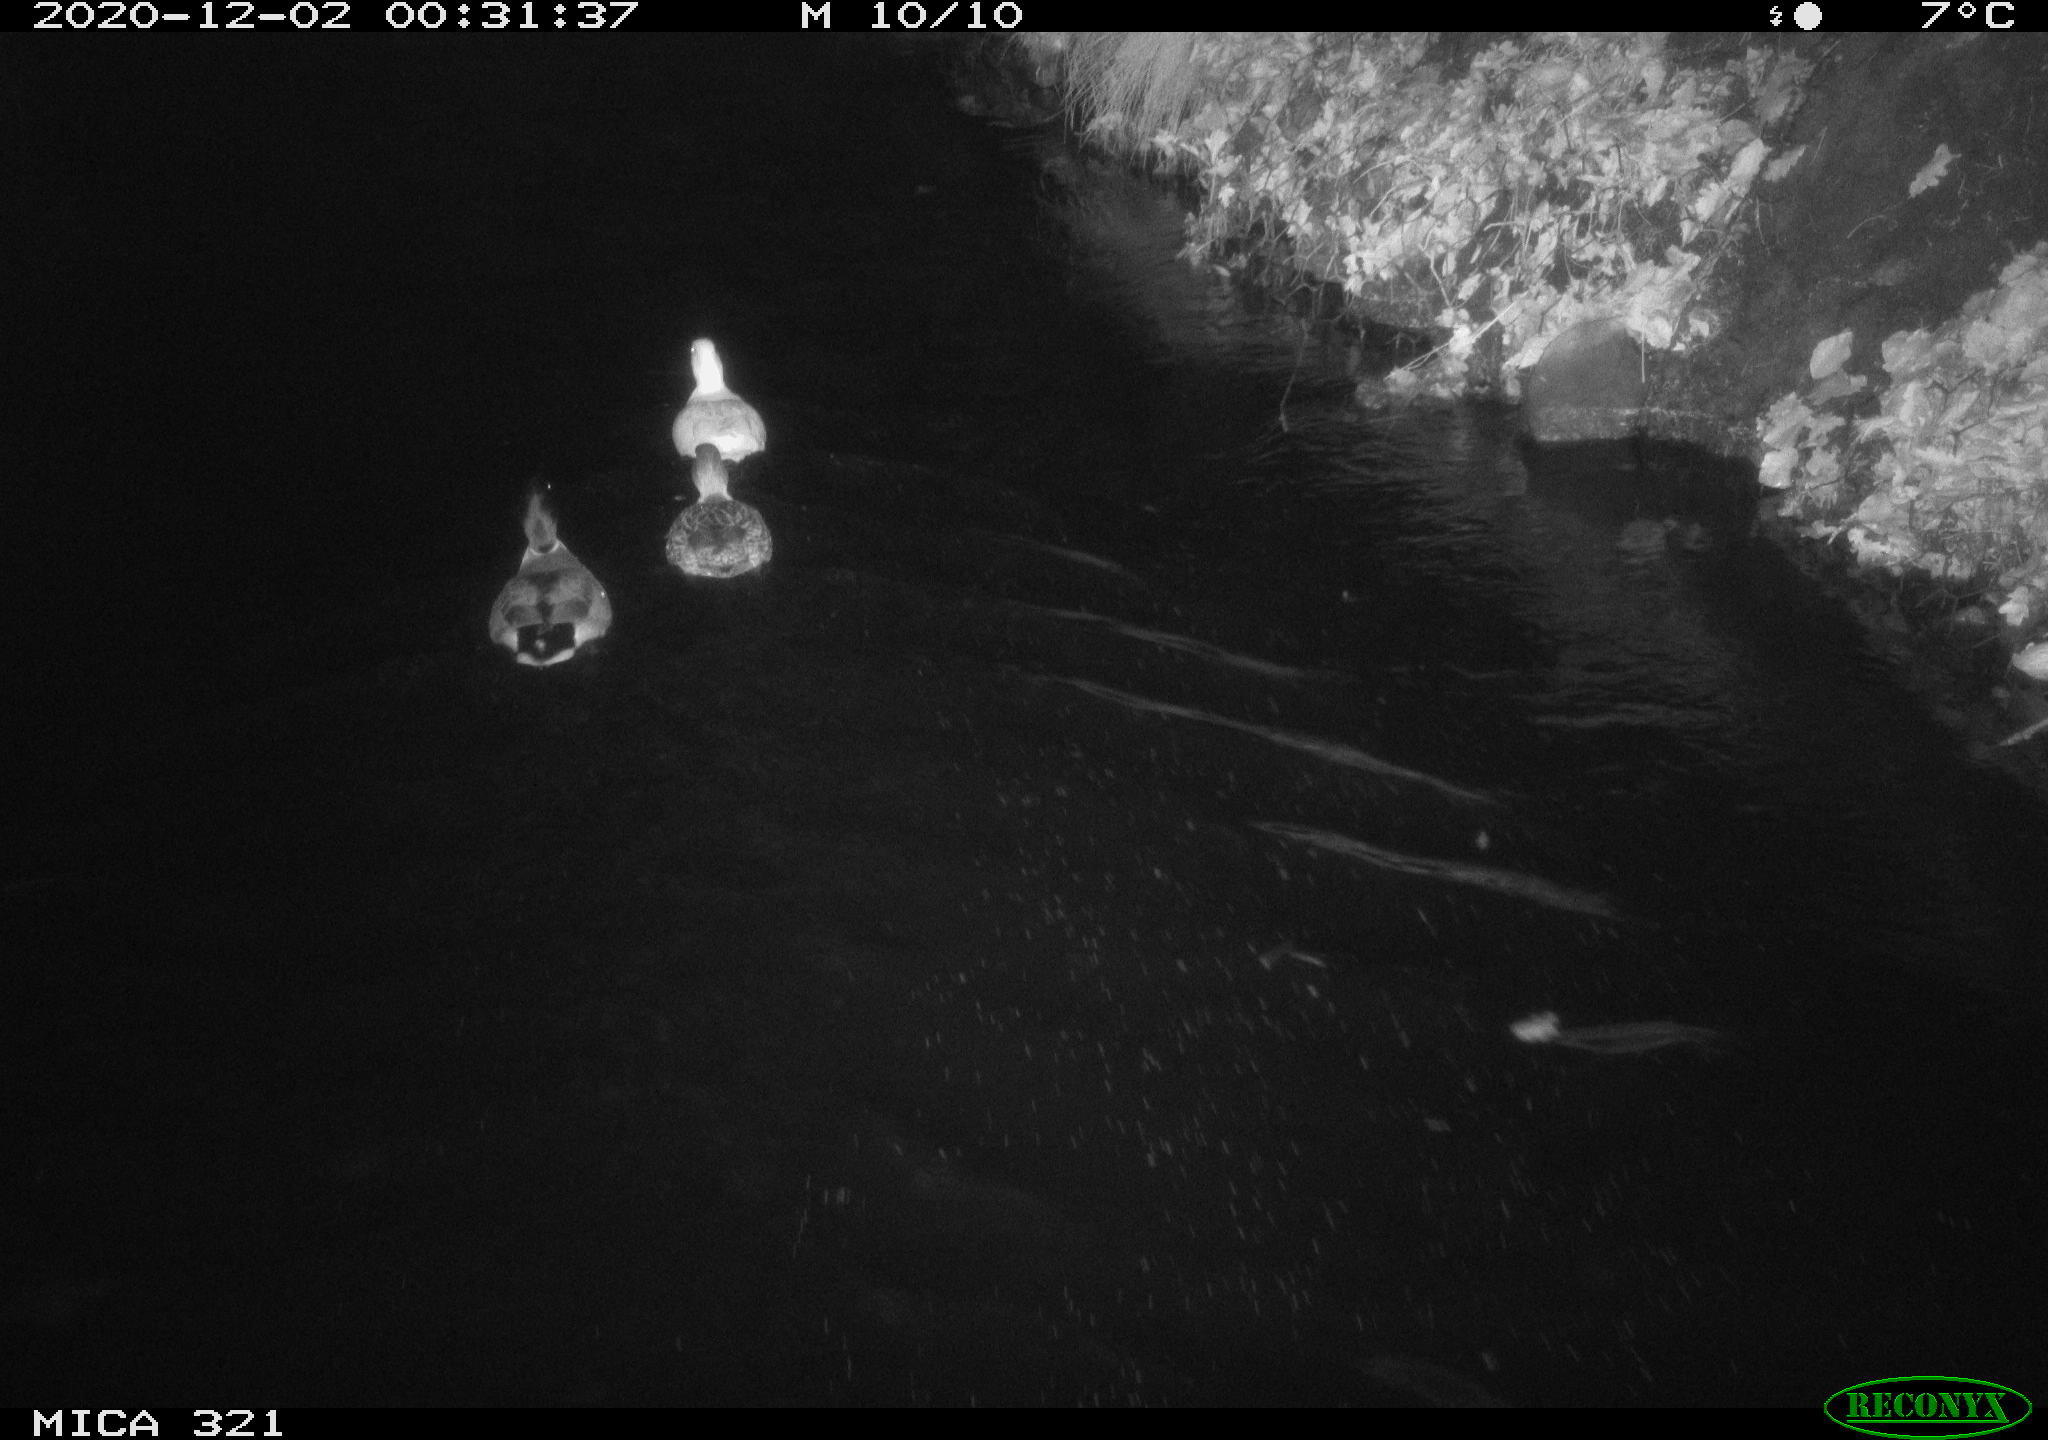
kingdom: Animalia
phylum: Chordata
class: Aves
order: Anseriformes
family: Anatidae
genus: Anas
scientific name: Anas platyrhynchos
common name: Mallard
